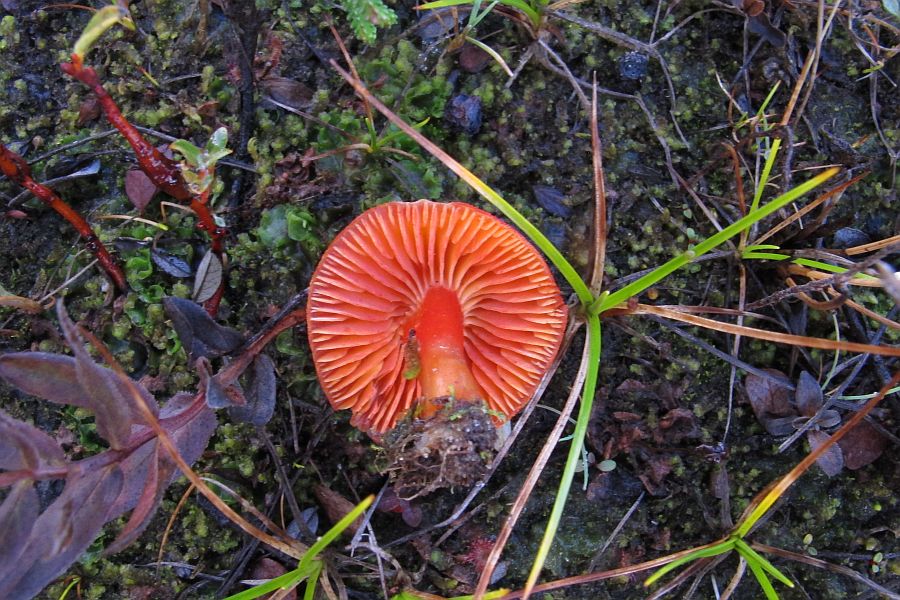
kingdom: Fungi
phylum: Basidiomycota
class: Agaricomycetes
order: Agaricales
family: Hygrophoraceae
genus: Hygrocybe
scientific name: Hygrocybe phaeococcinea
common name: sortdugget vokshat
